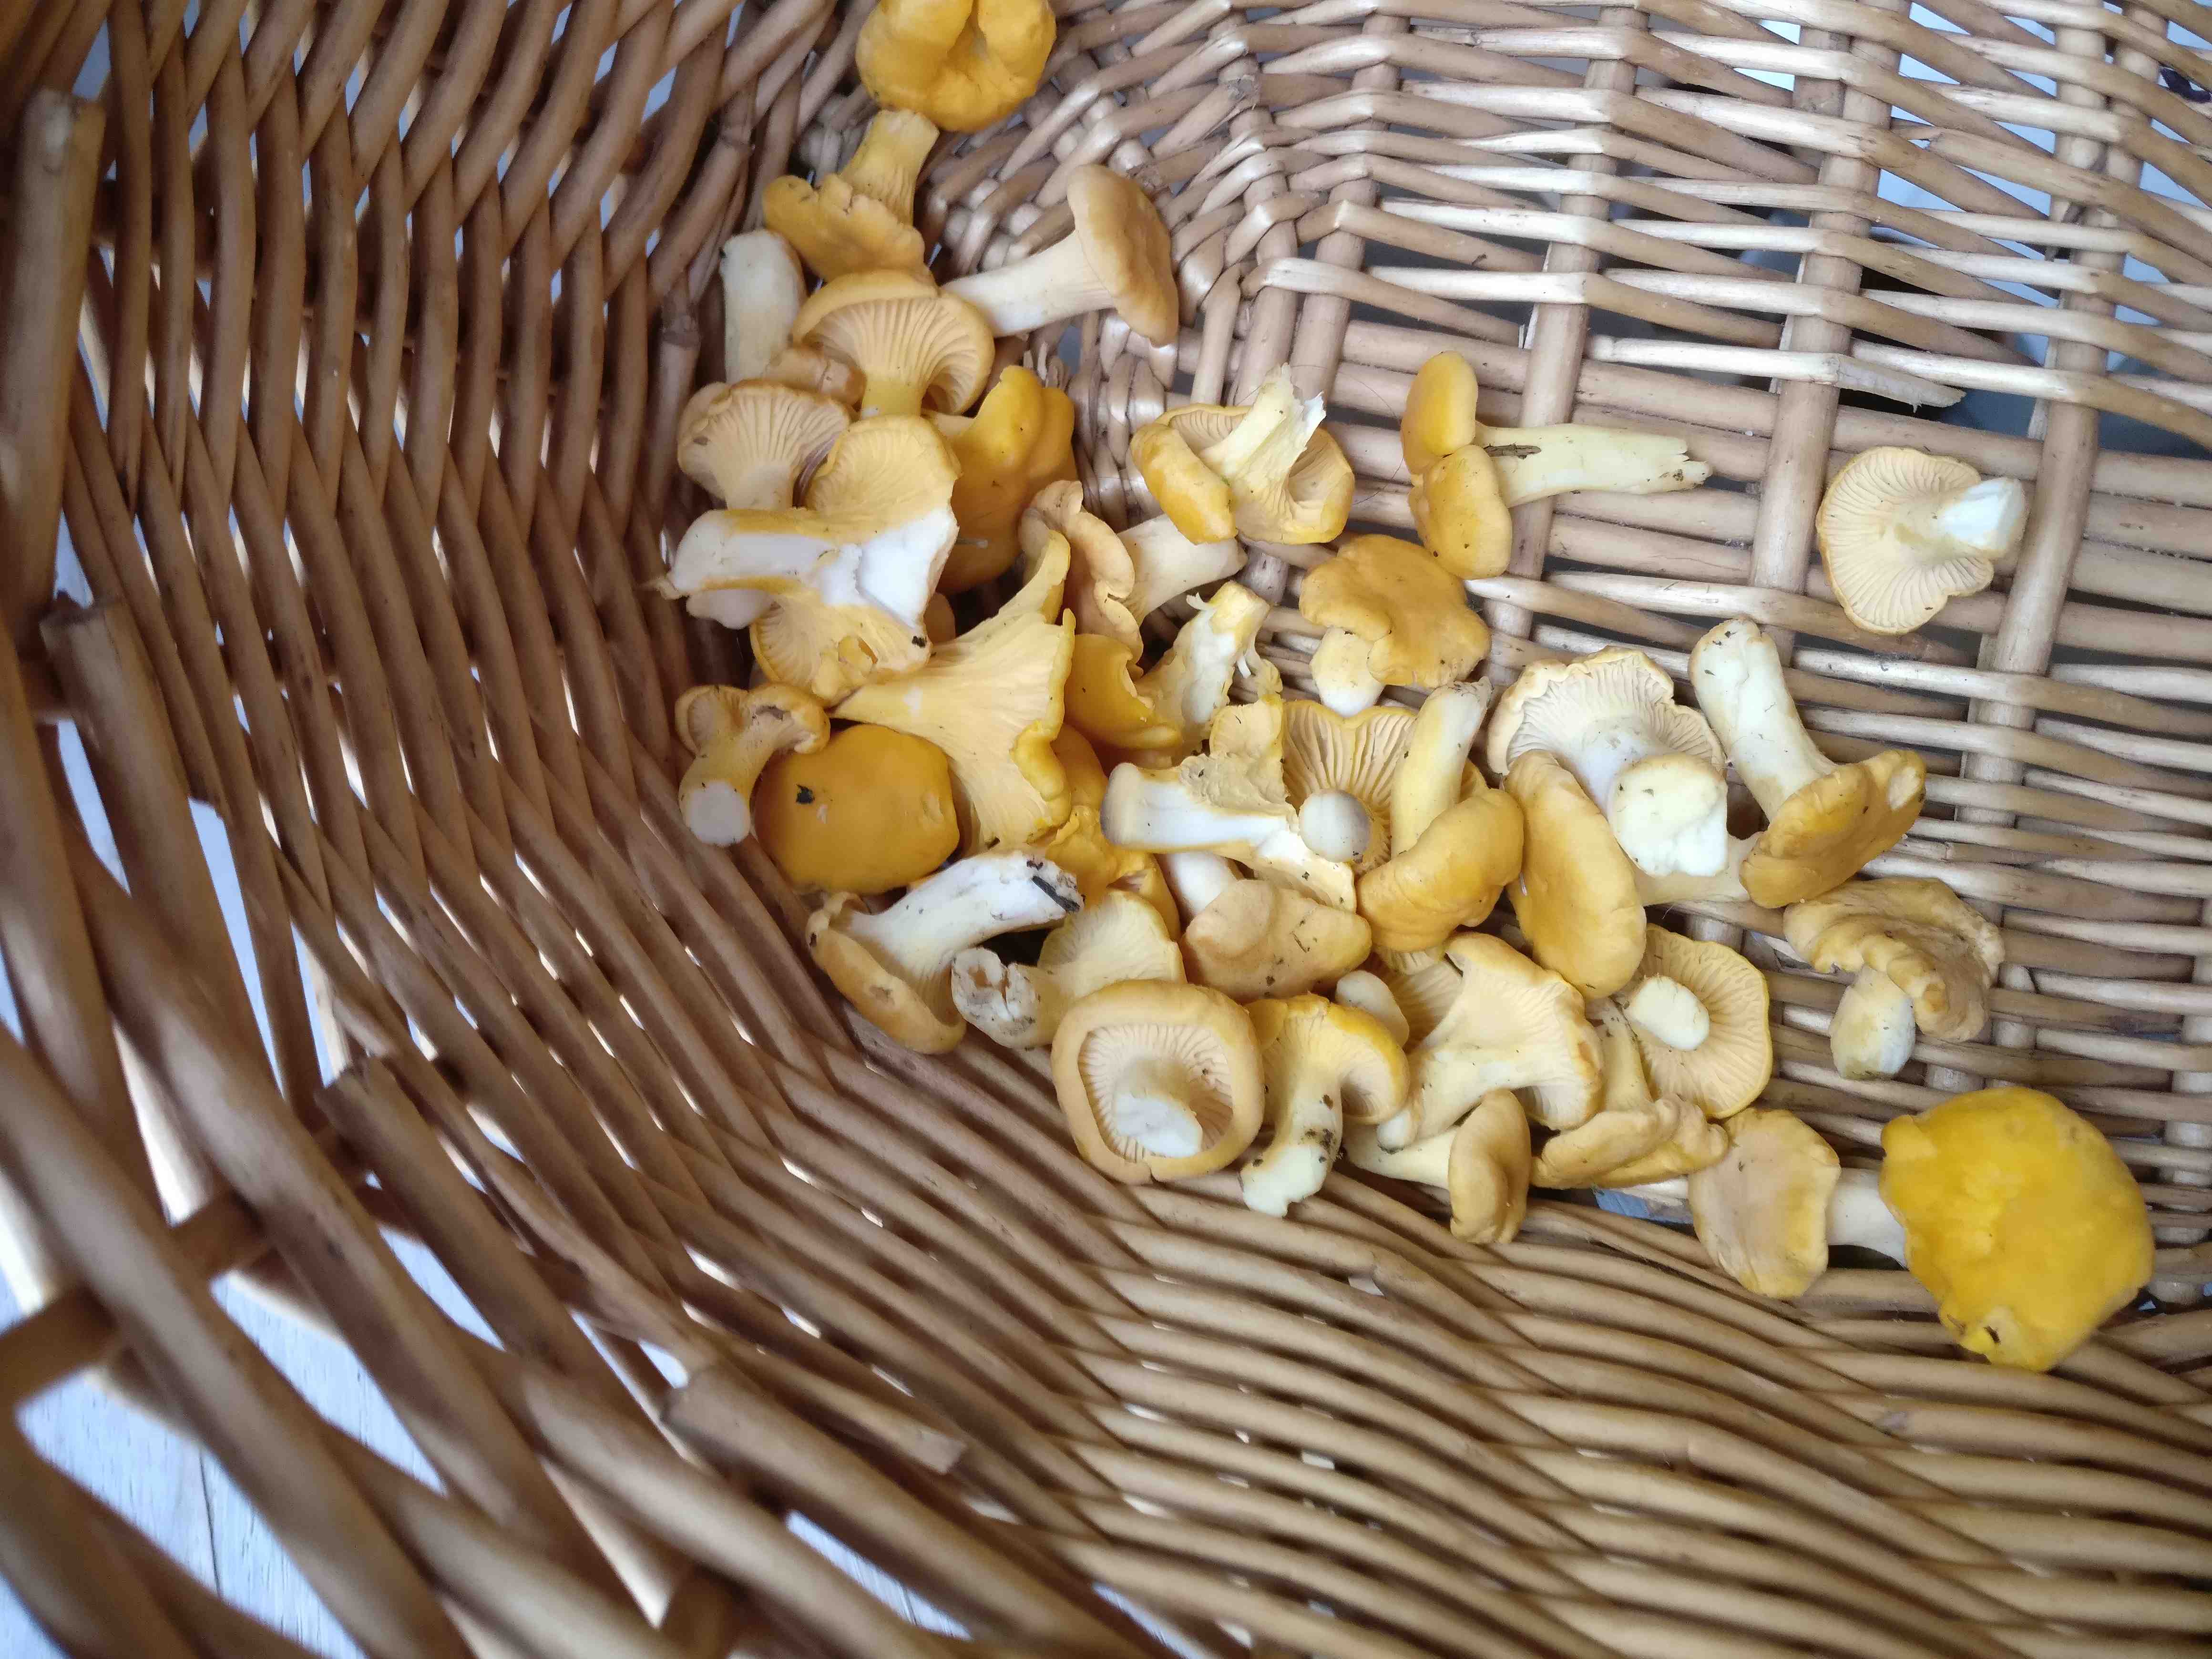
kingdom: Fungi
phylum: Basidiomycota
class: Agaricomycetes
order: Cantharellales
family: Hydnaceae
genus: Cantharellus
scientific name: Cantharellus cibarius
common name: almindelig kantarel
